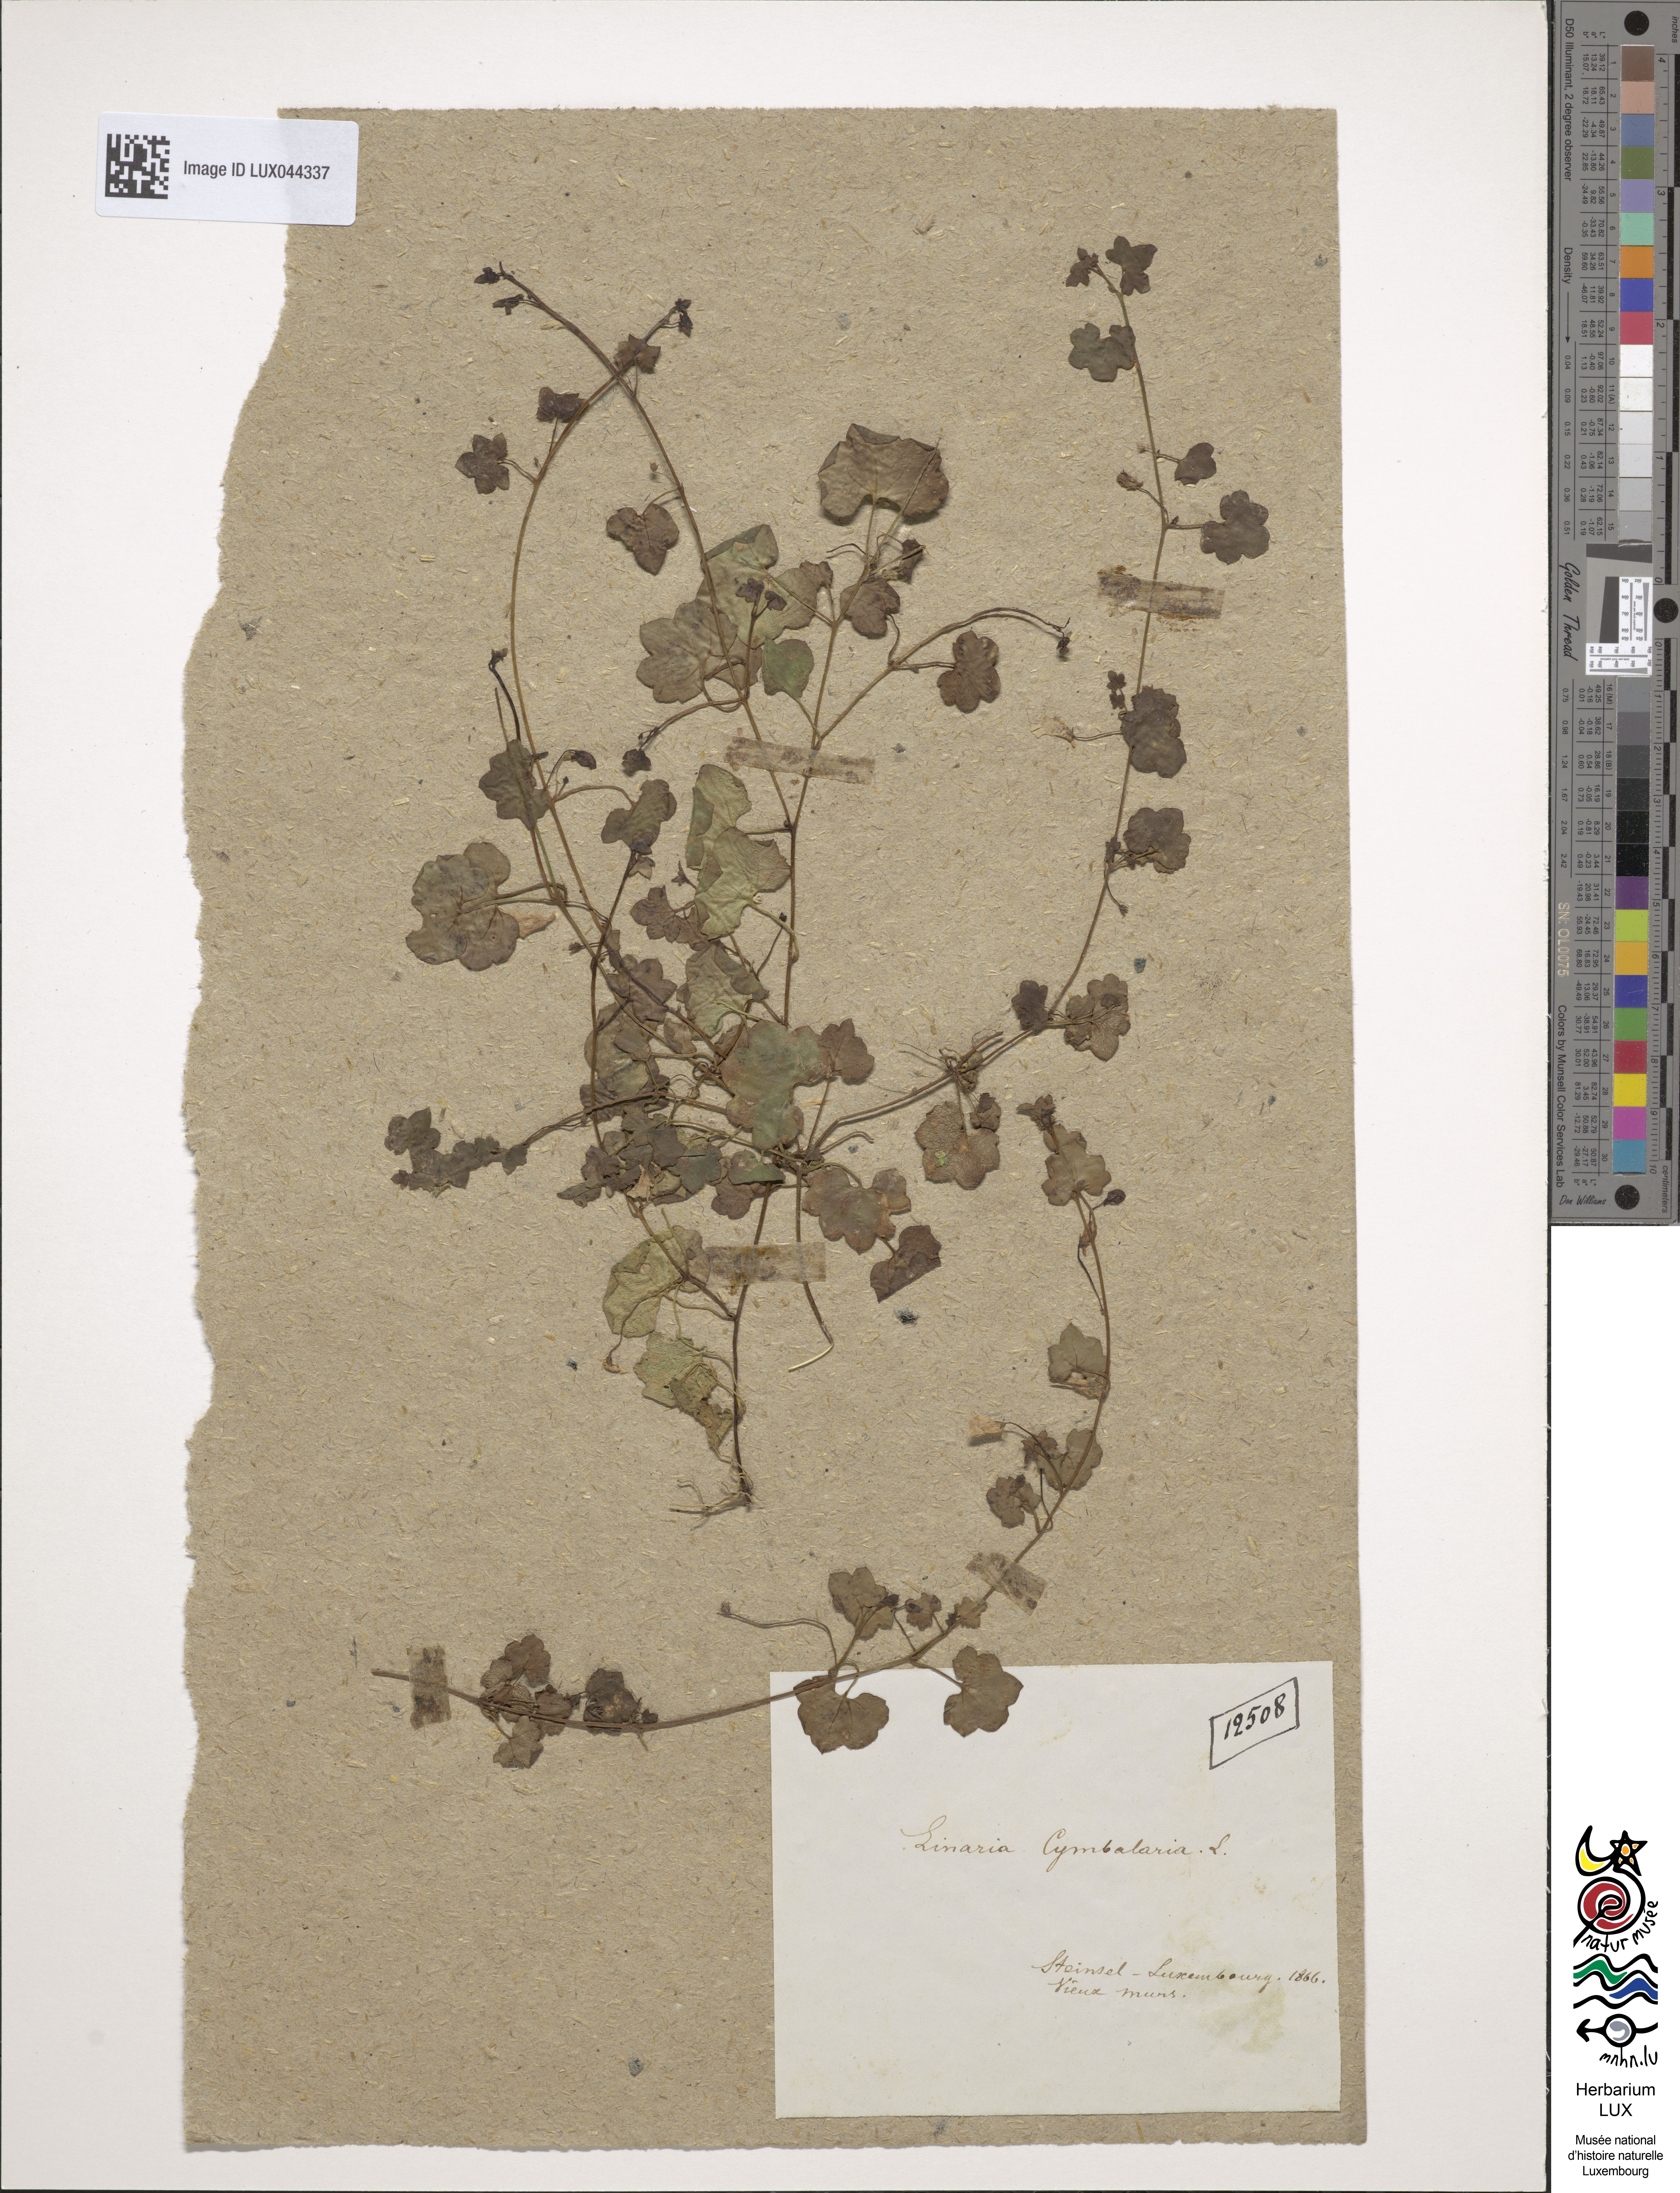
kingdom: Plantae
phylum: Tracheophyta
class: Magnoliopsida
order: Lamiales
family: Plantaginaceae
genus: Cymbalaria
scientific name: Cymbalaria muralis
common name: Ivy-leaved toadflax
